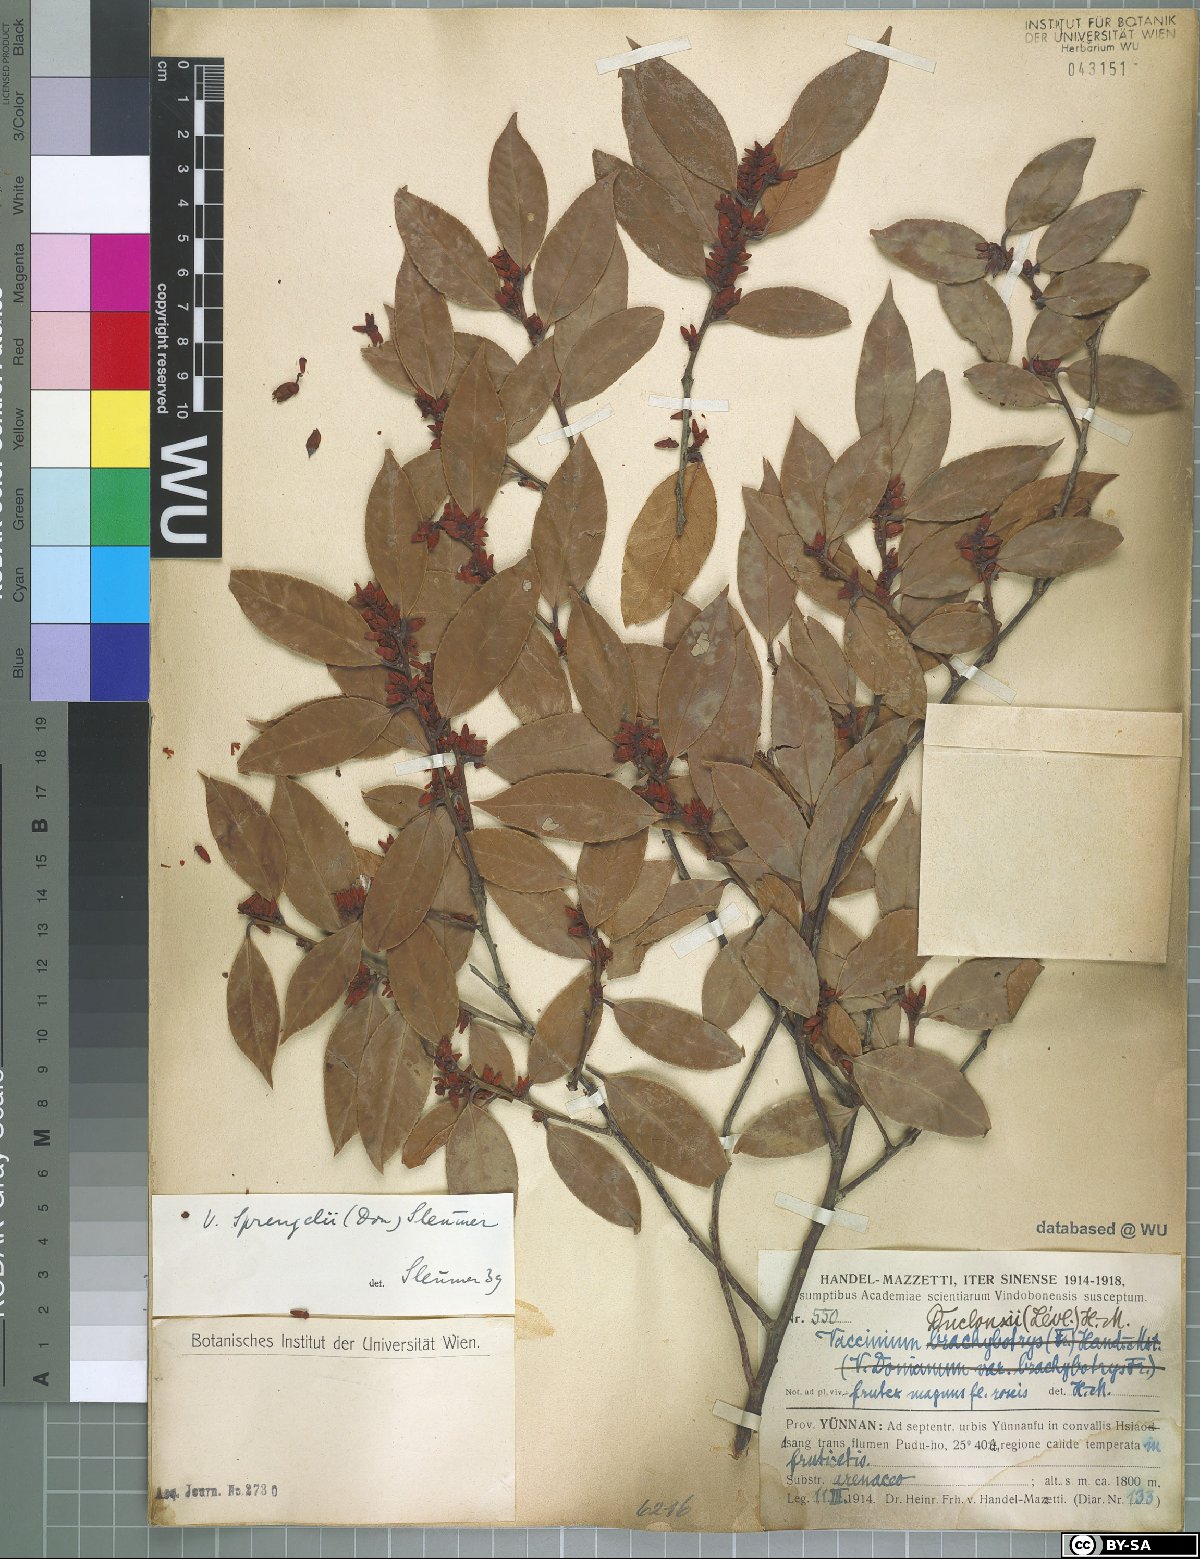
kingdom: Plantae
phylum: Tracheophyta
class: Magnoliopsida
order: Ericales
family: Ericaceae
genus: Vaccinium
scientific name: Vaccinium sprengelii
